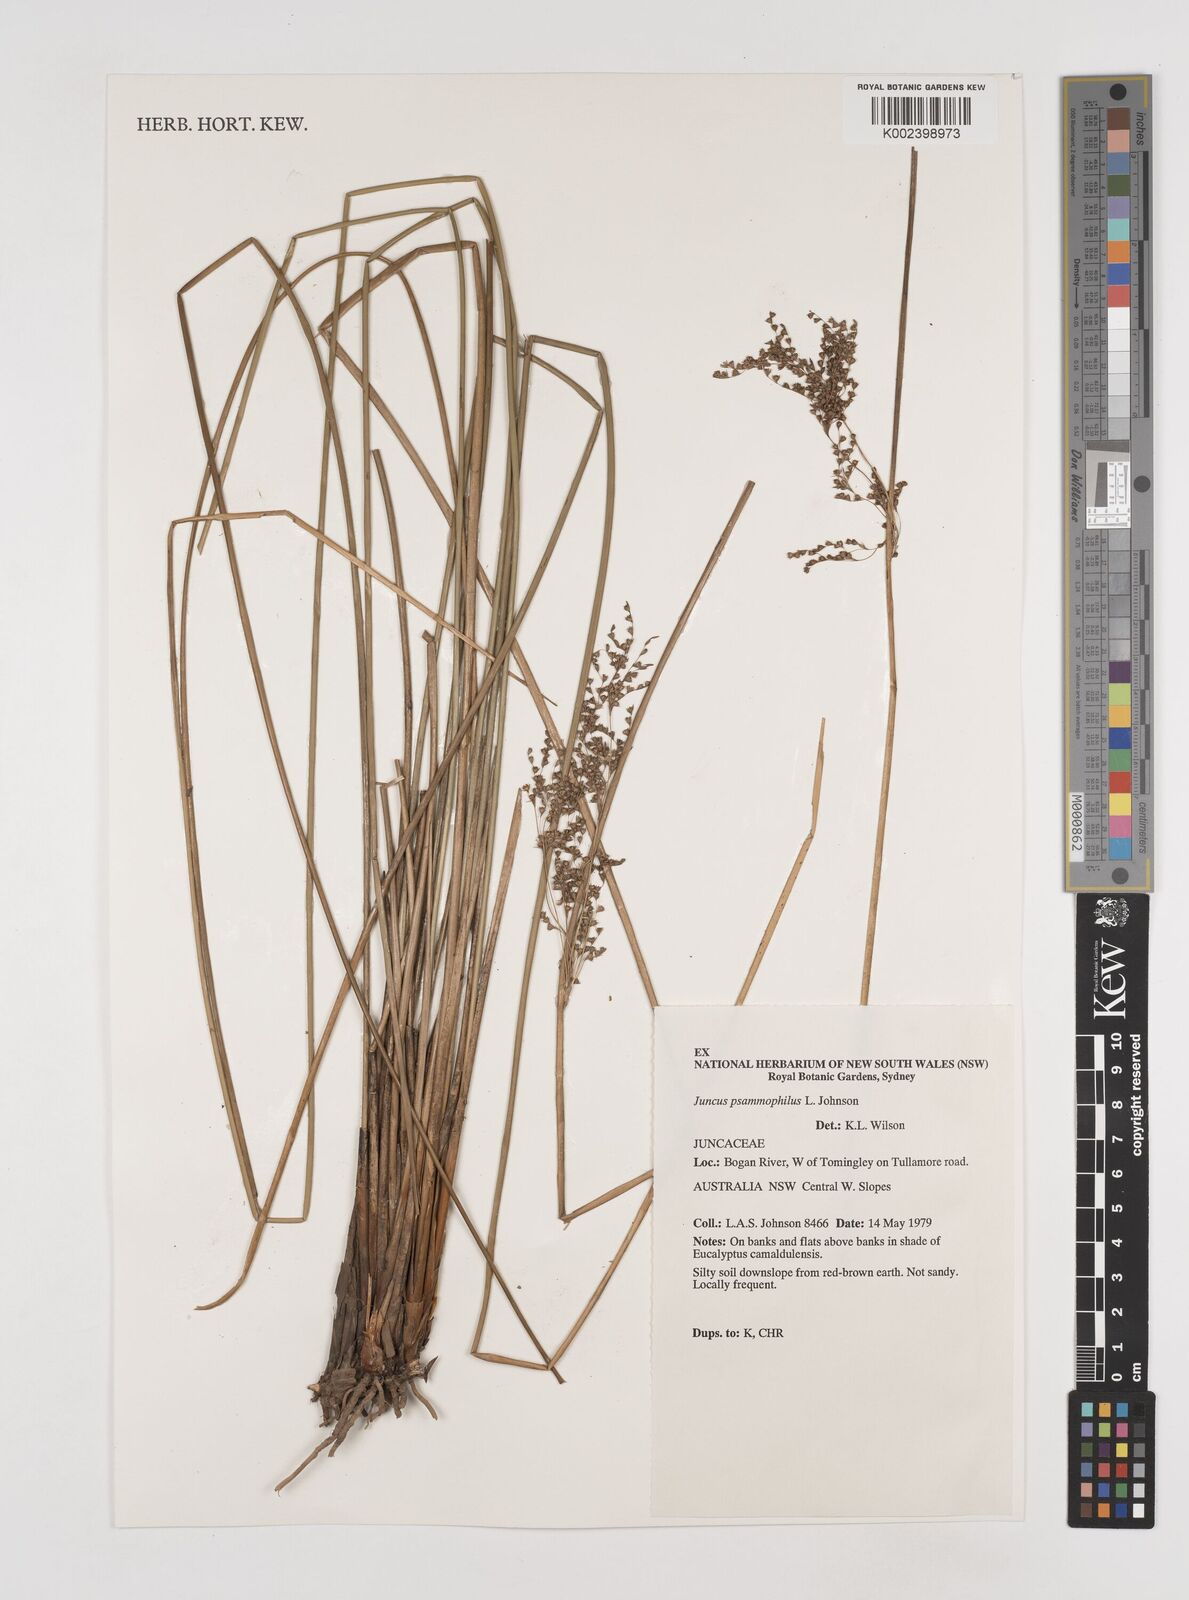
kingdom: Plantae
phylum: Tracheophyta
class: Liliopsida
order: Poales
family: Juncaceae
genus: Juncus
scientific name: Juncus psammophilus
